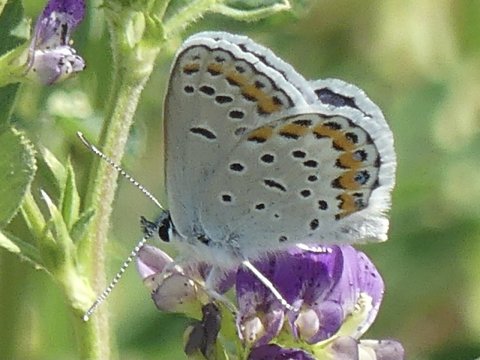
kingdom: Animalia
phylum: Arthropoda
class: Insecta
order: Lepidoptera
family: Lycaenidae
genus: Lycaeides
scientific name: Lycaeides melissa
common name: Melissa Blue
